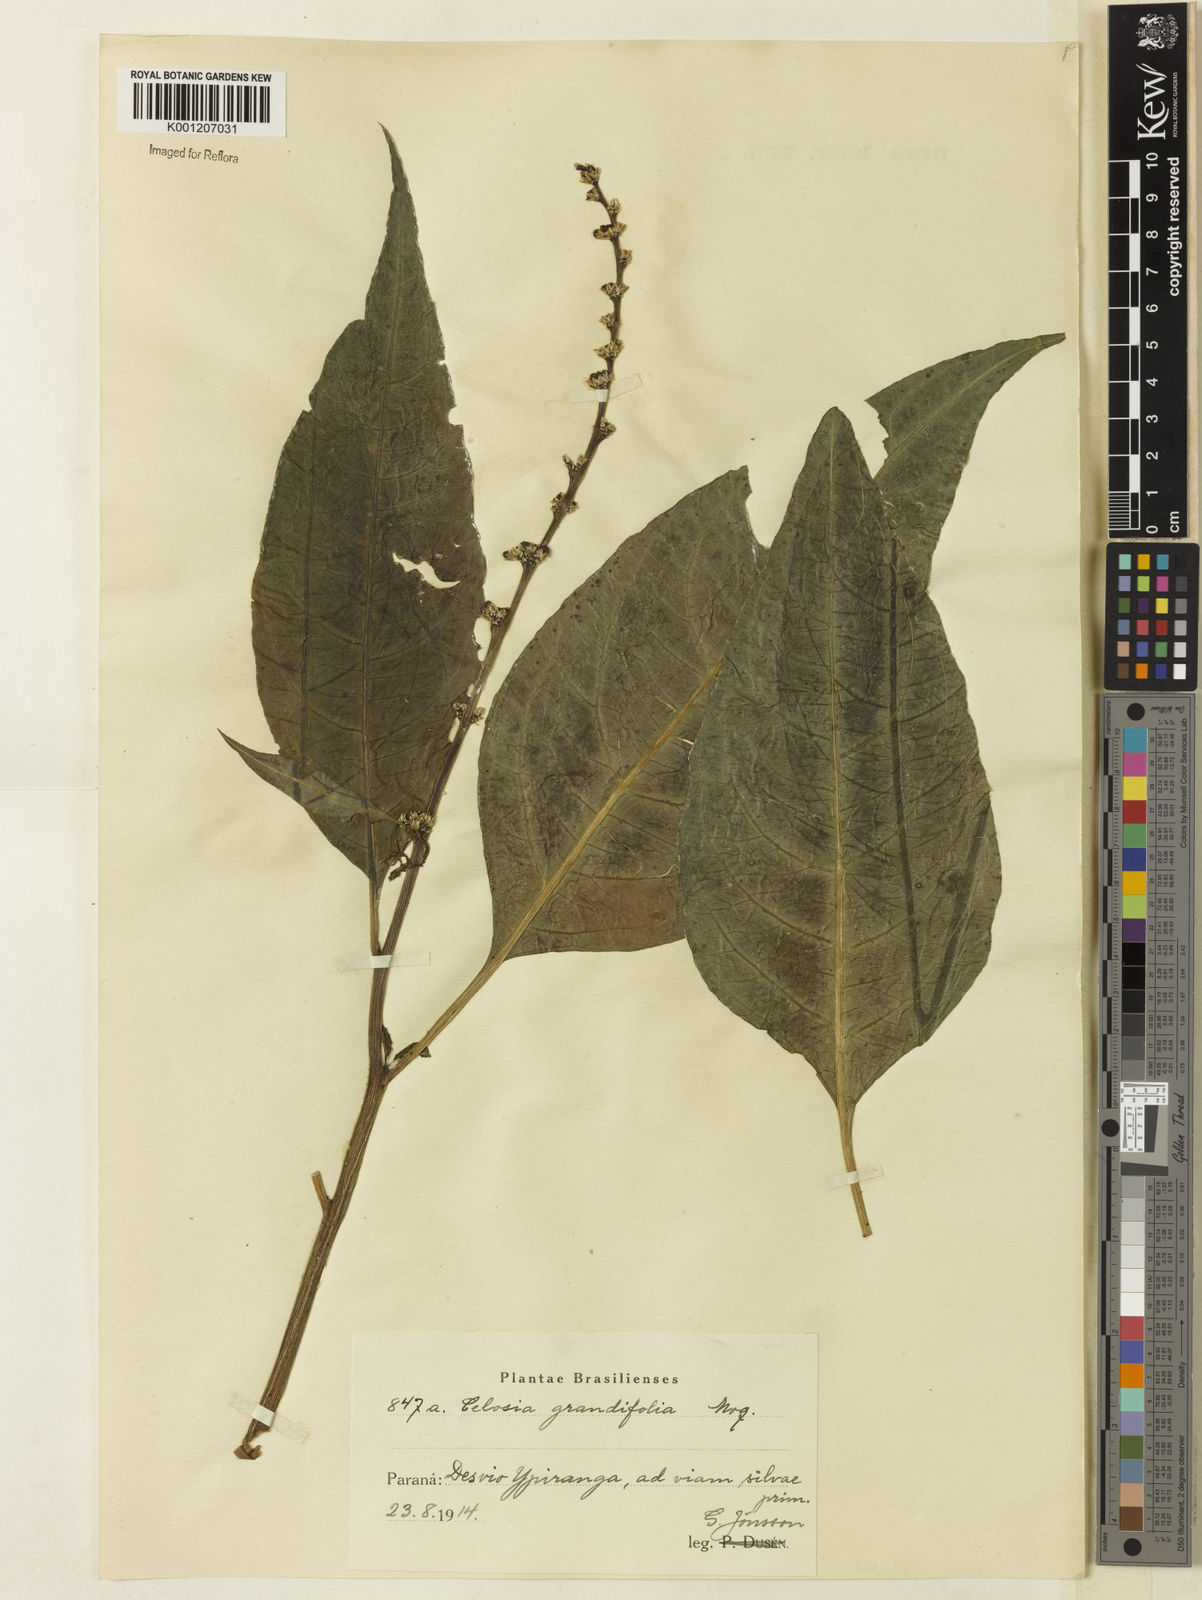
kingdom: Plantae
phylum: Tracheophyta
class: Magnoliopsida
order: Caryophyllales
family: Amaranthaceae
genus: Celosia
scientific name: Celosia grandifolia
